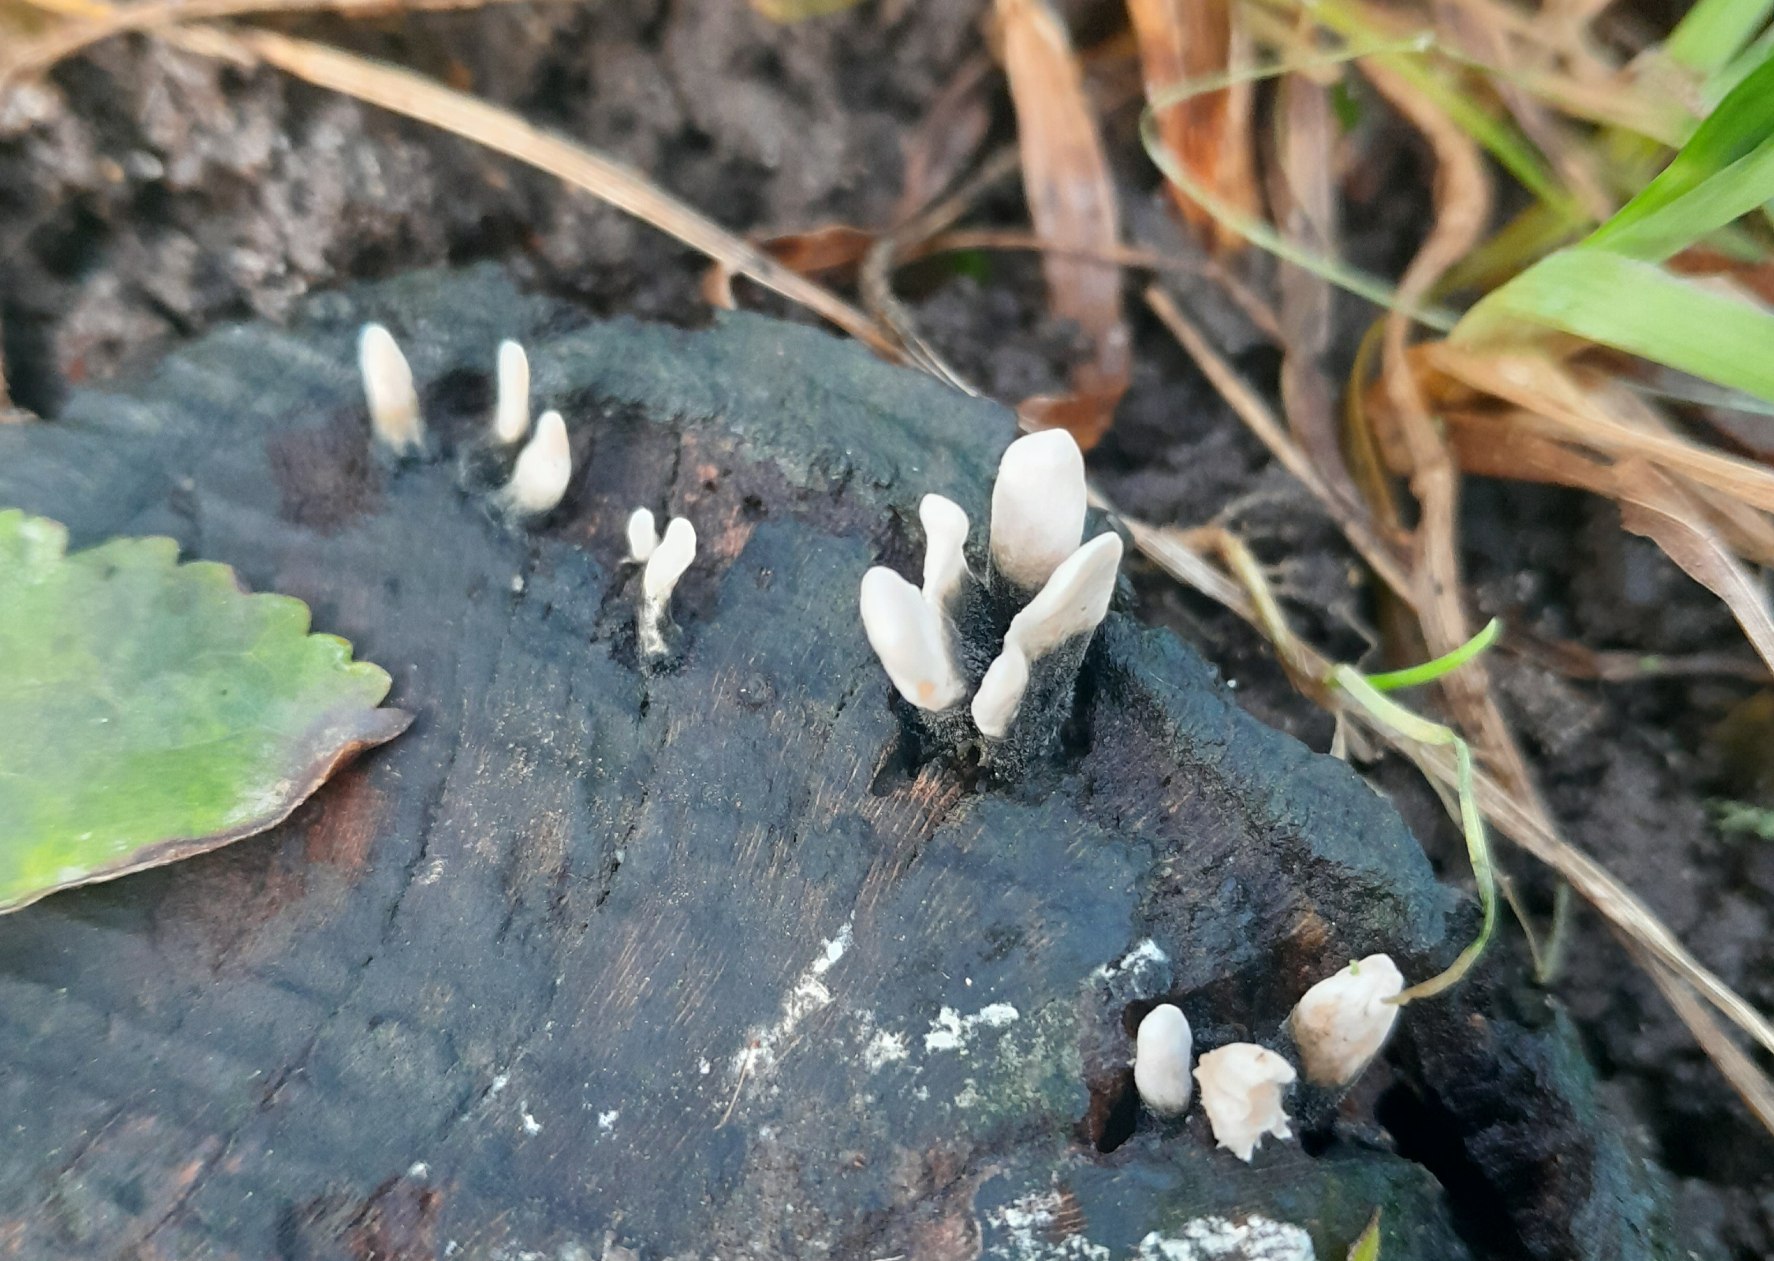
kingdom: Fungi
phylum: Ascomycota
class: Sordariomycetes
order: Xylariales
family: Xylariaceae
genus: Xylaria
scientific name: Xylaria hypoxylon
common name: Grenet stødsvamp
